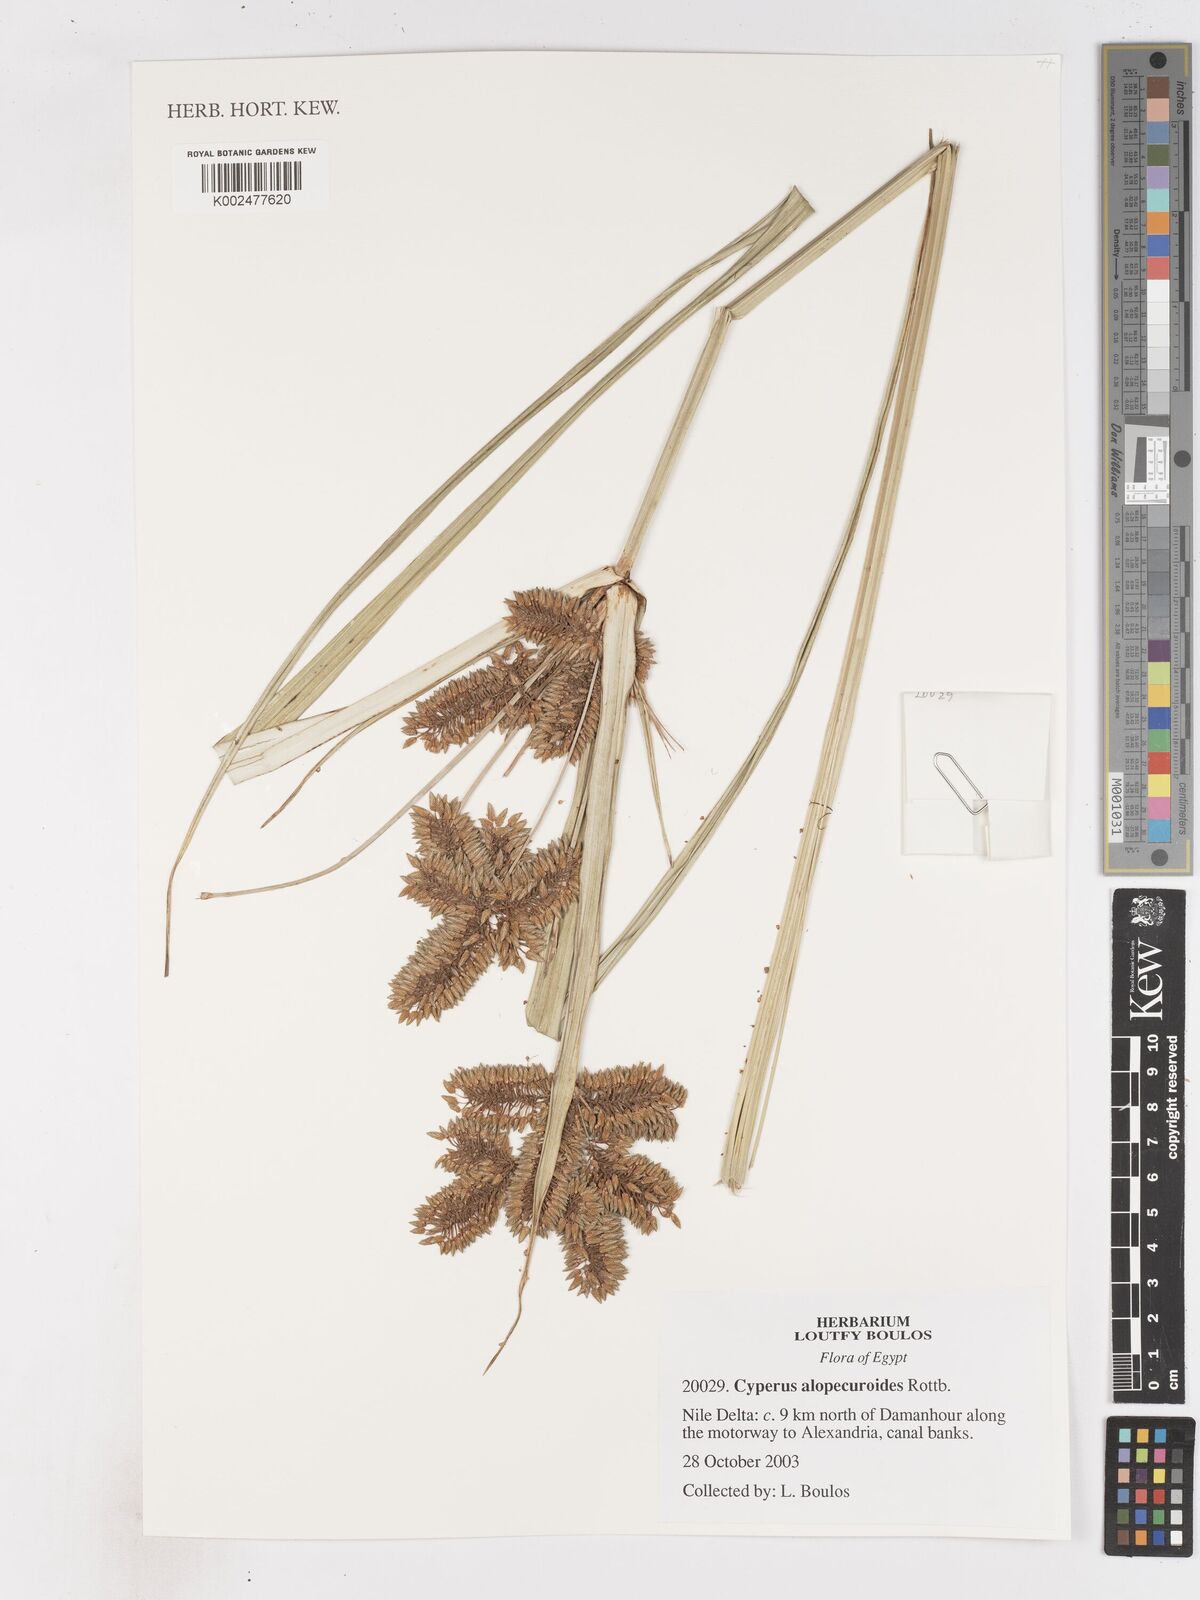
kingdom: Plantae
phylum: Tracheophyta
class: Liliopsida
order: Poales
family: Cyperaceae
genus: Cyperus
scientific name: Cyperus alopecuroides
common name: Foxtail flatsedge
